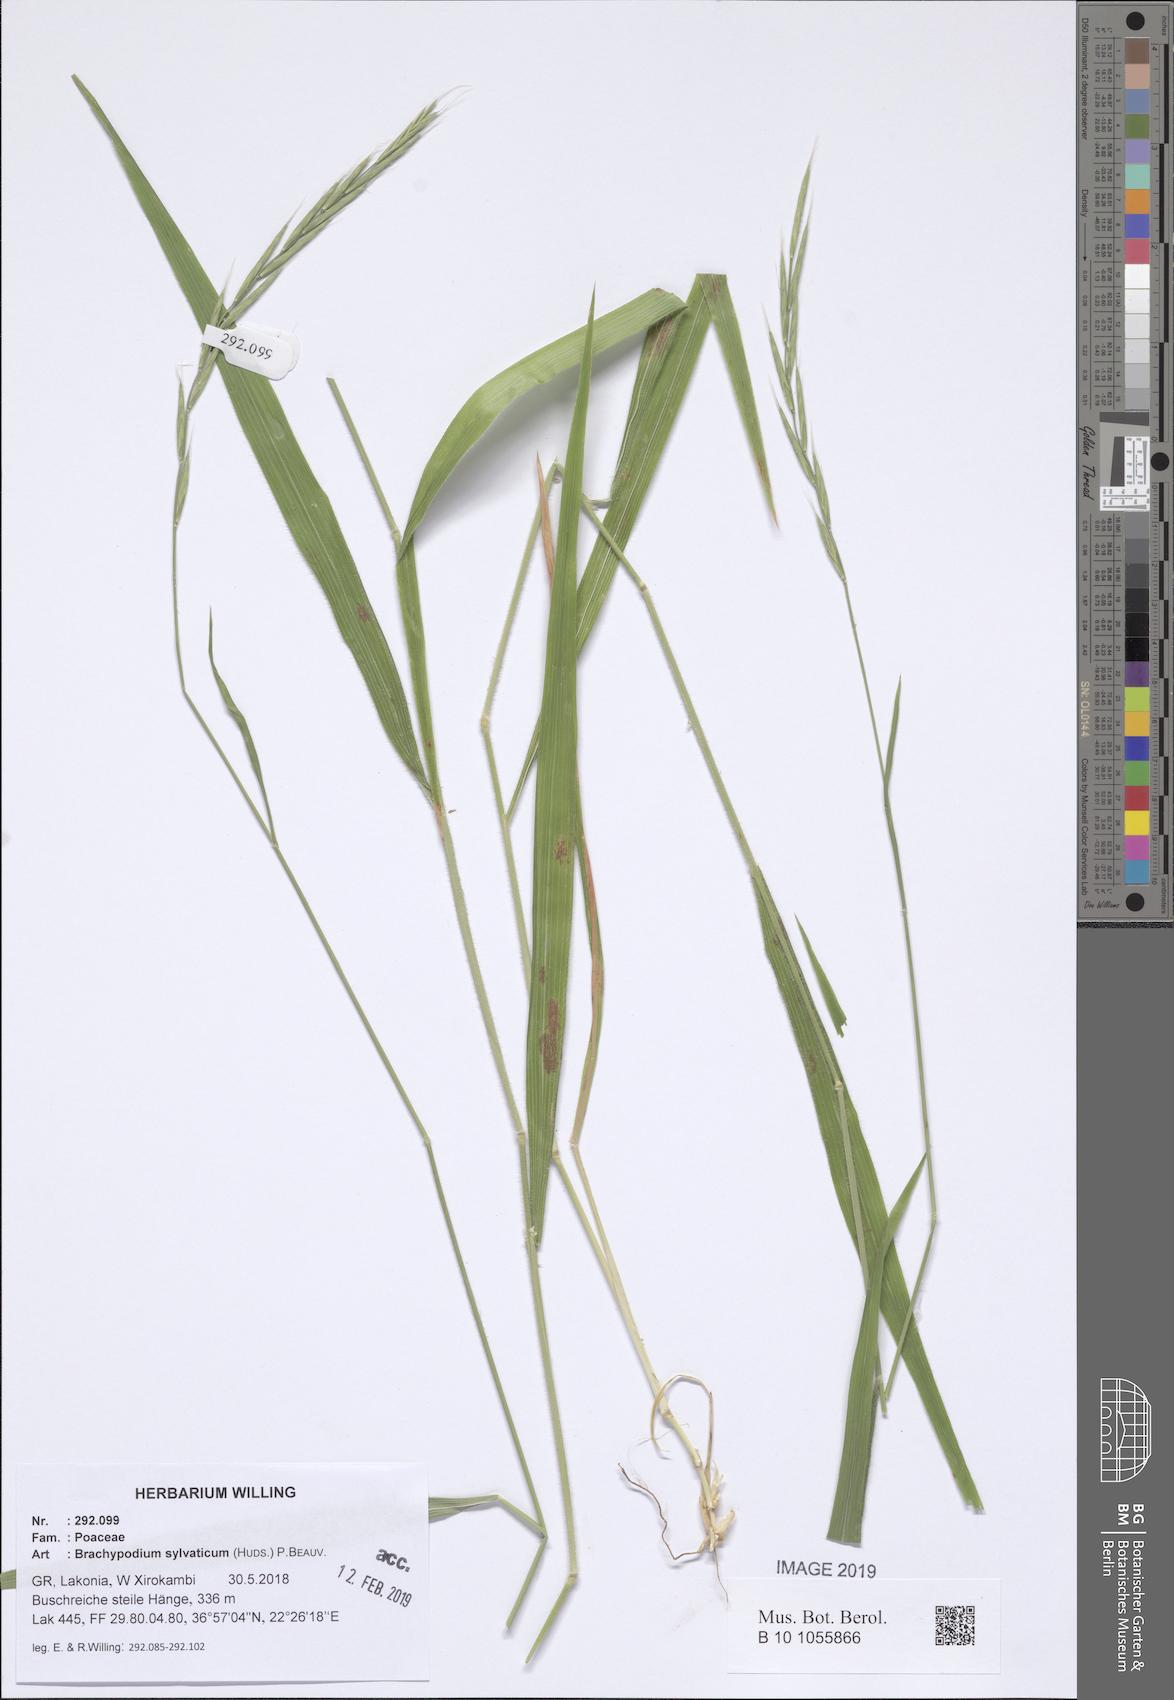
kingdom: Plantae
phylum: Tracheophyta
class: Liliopsida
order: Poales
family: Poaceae
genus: Brachypodium
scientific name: Brachypodium sylvaticum
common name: False-brome
